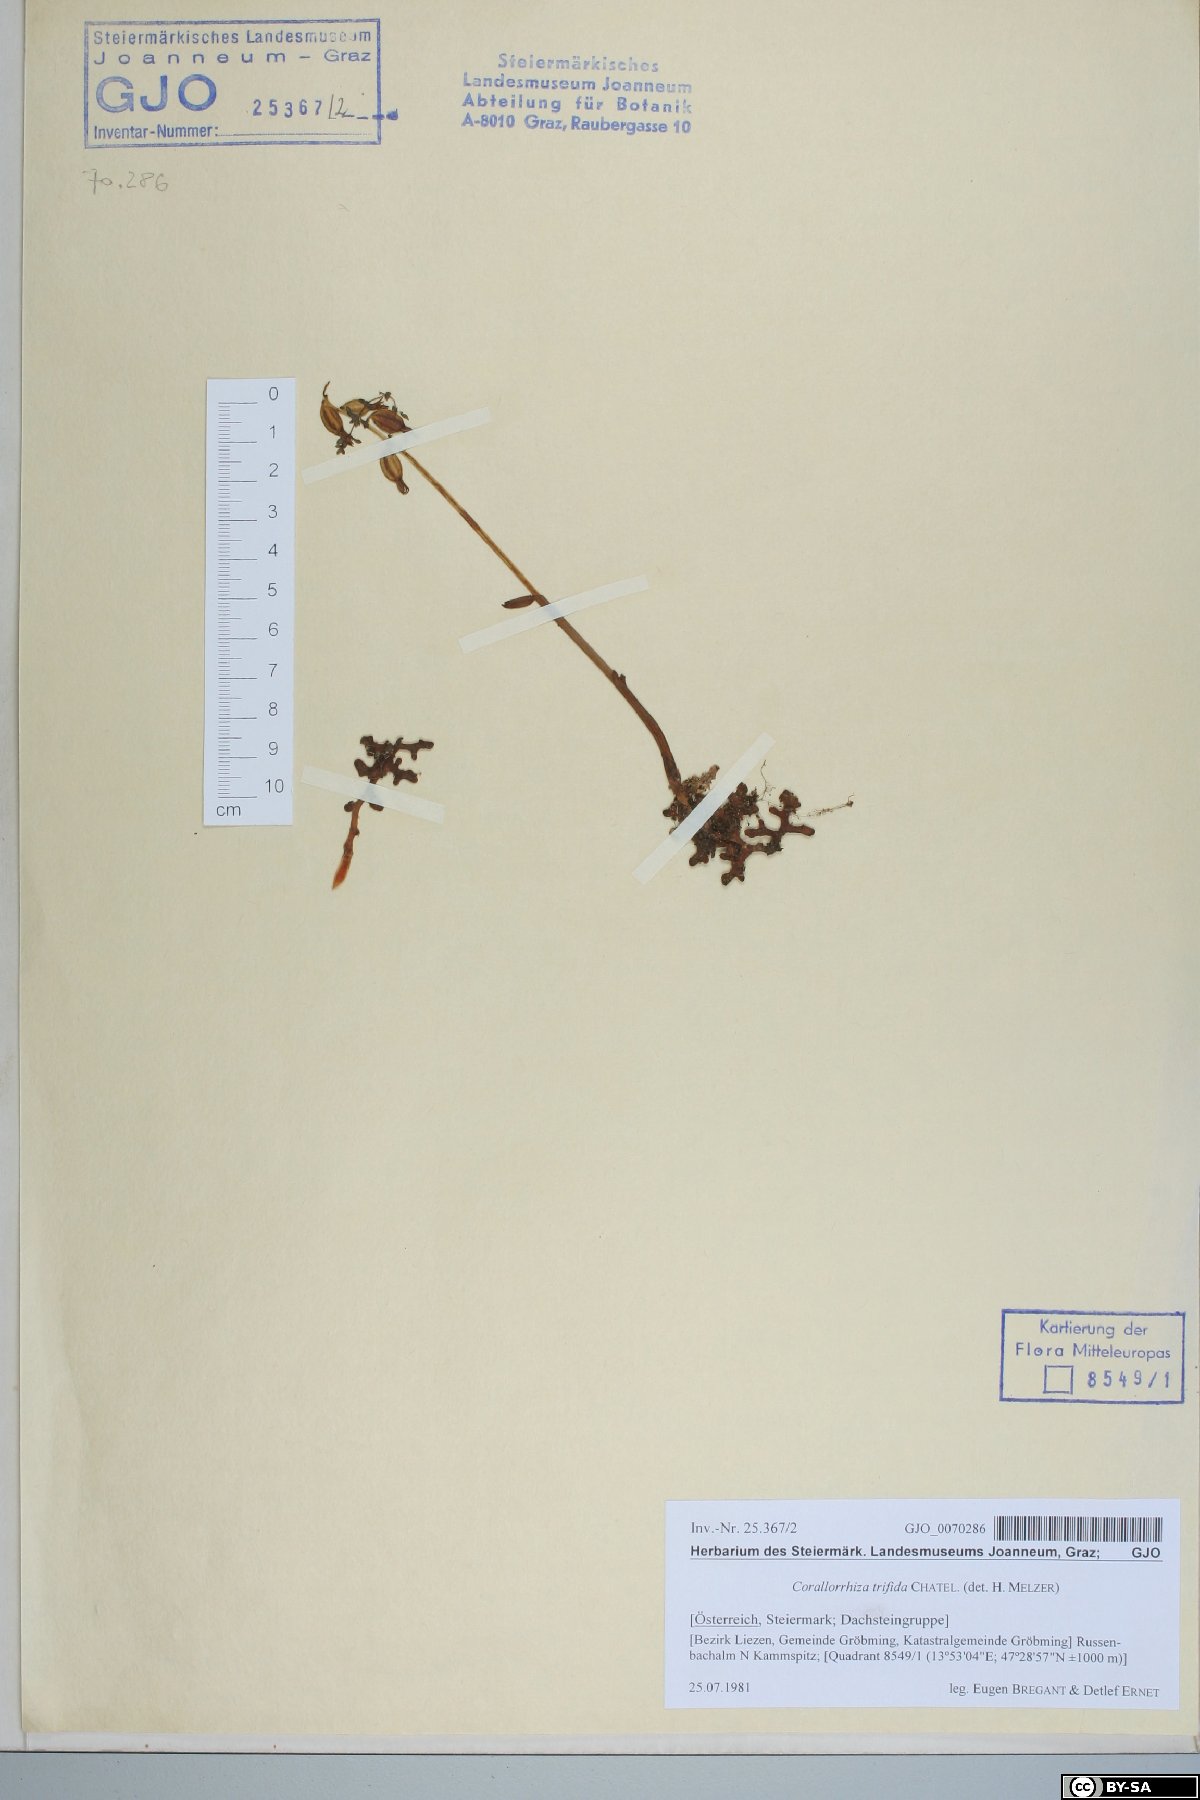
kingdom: Plantae
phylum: Tracheophyta
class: Liliopsida
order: Asparagales
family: Orchidaceae
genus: Corallorhiza
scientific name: Corallorhiza trifida
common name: Yellow coralroot
